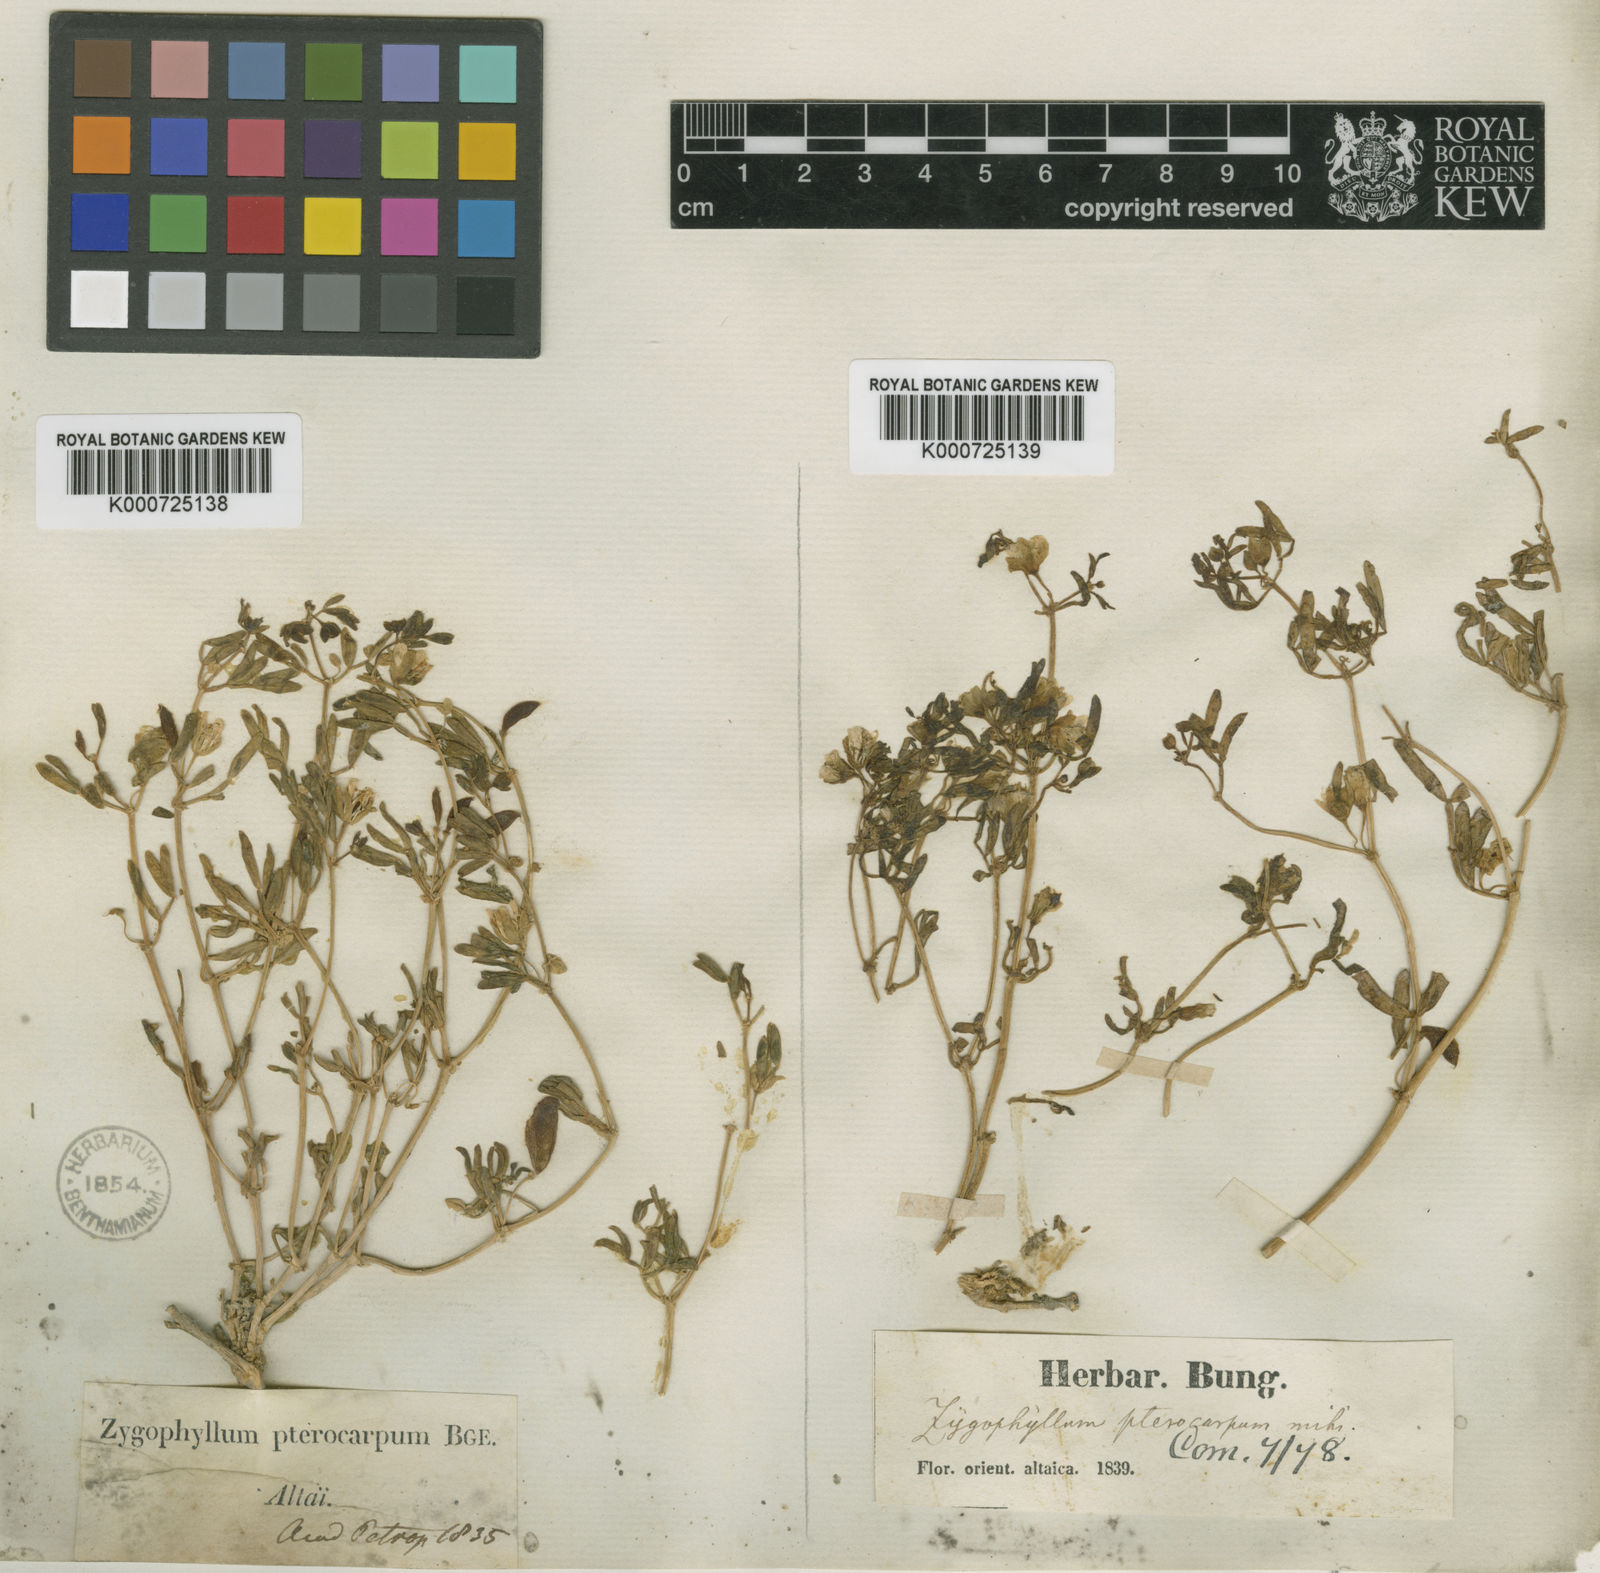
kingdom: Plantae
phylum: Tracheophyta
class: Magnoliopsida
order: Zygophyllales
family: Zygophyllaceae
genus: Zygophyllum
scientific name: Zygophyllum pterocarpum
